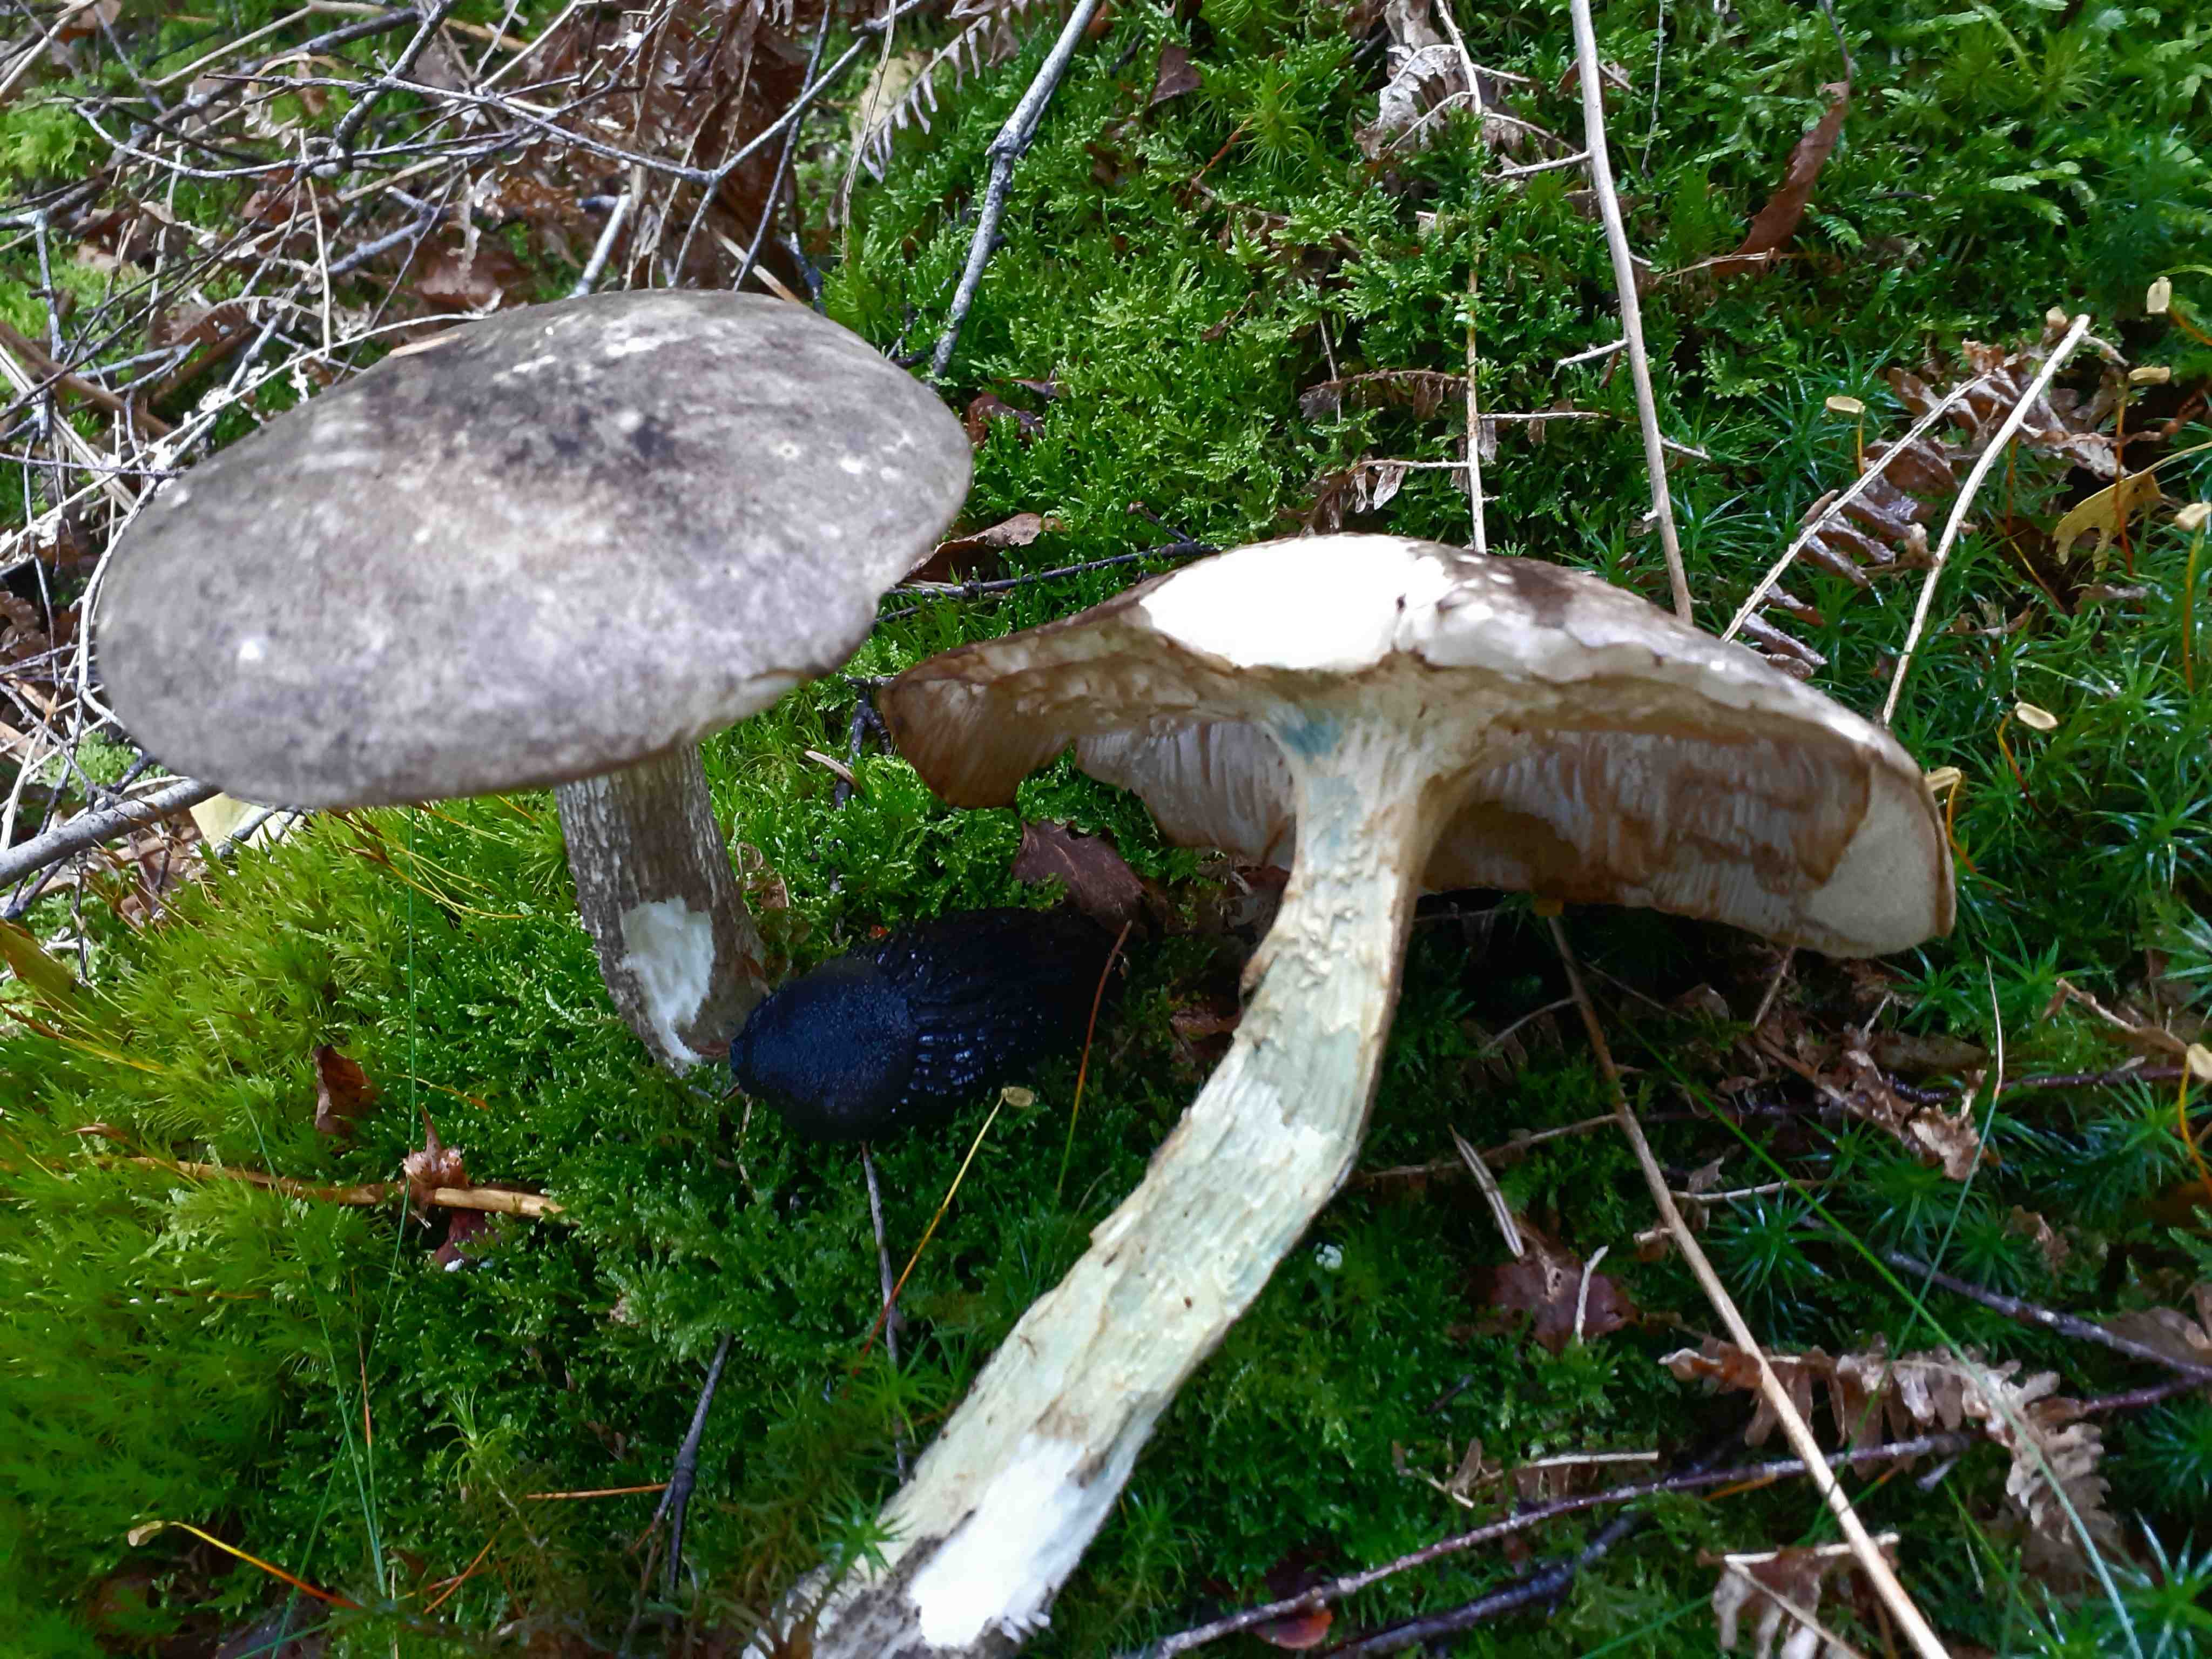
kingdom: Fungi
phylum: Basidiomycota
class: Agaricomycetes
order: Boletales
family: Boletaceae
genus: Leccinum
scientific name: Leccinum variicolor
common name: flammet skælrørhat
